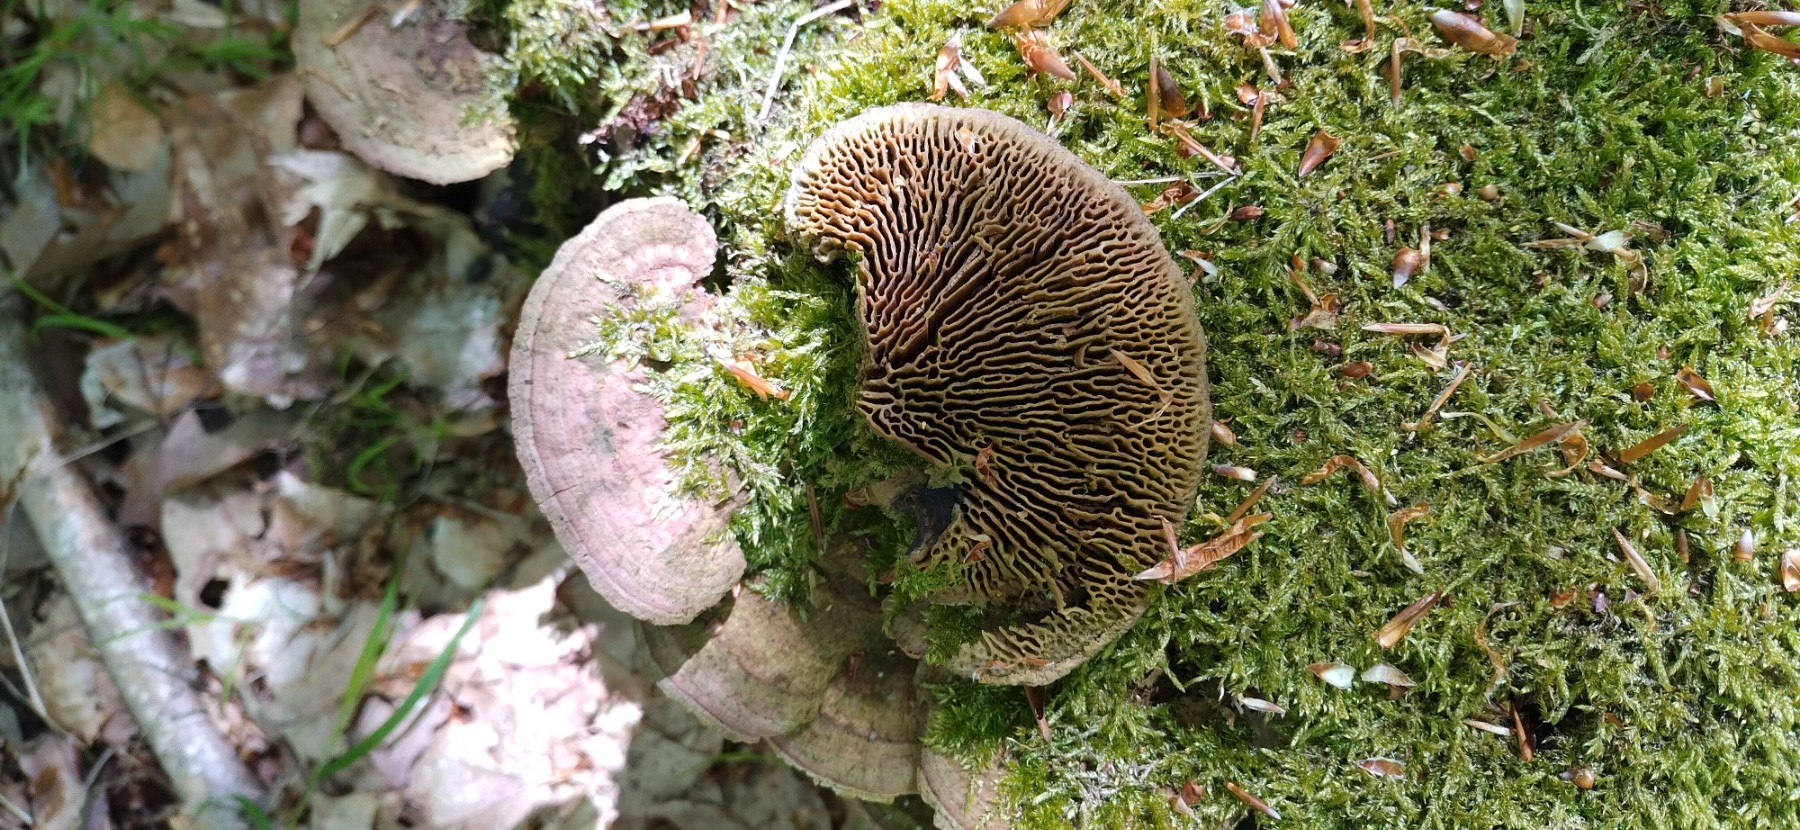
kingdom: Fungi
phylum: Basidiomycota
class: Agaricomycetes
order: Polyporales
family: Fomitopsidaceae
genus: Daedalea
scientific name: Daedalea quercina
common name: ege-labyrintsvamp
